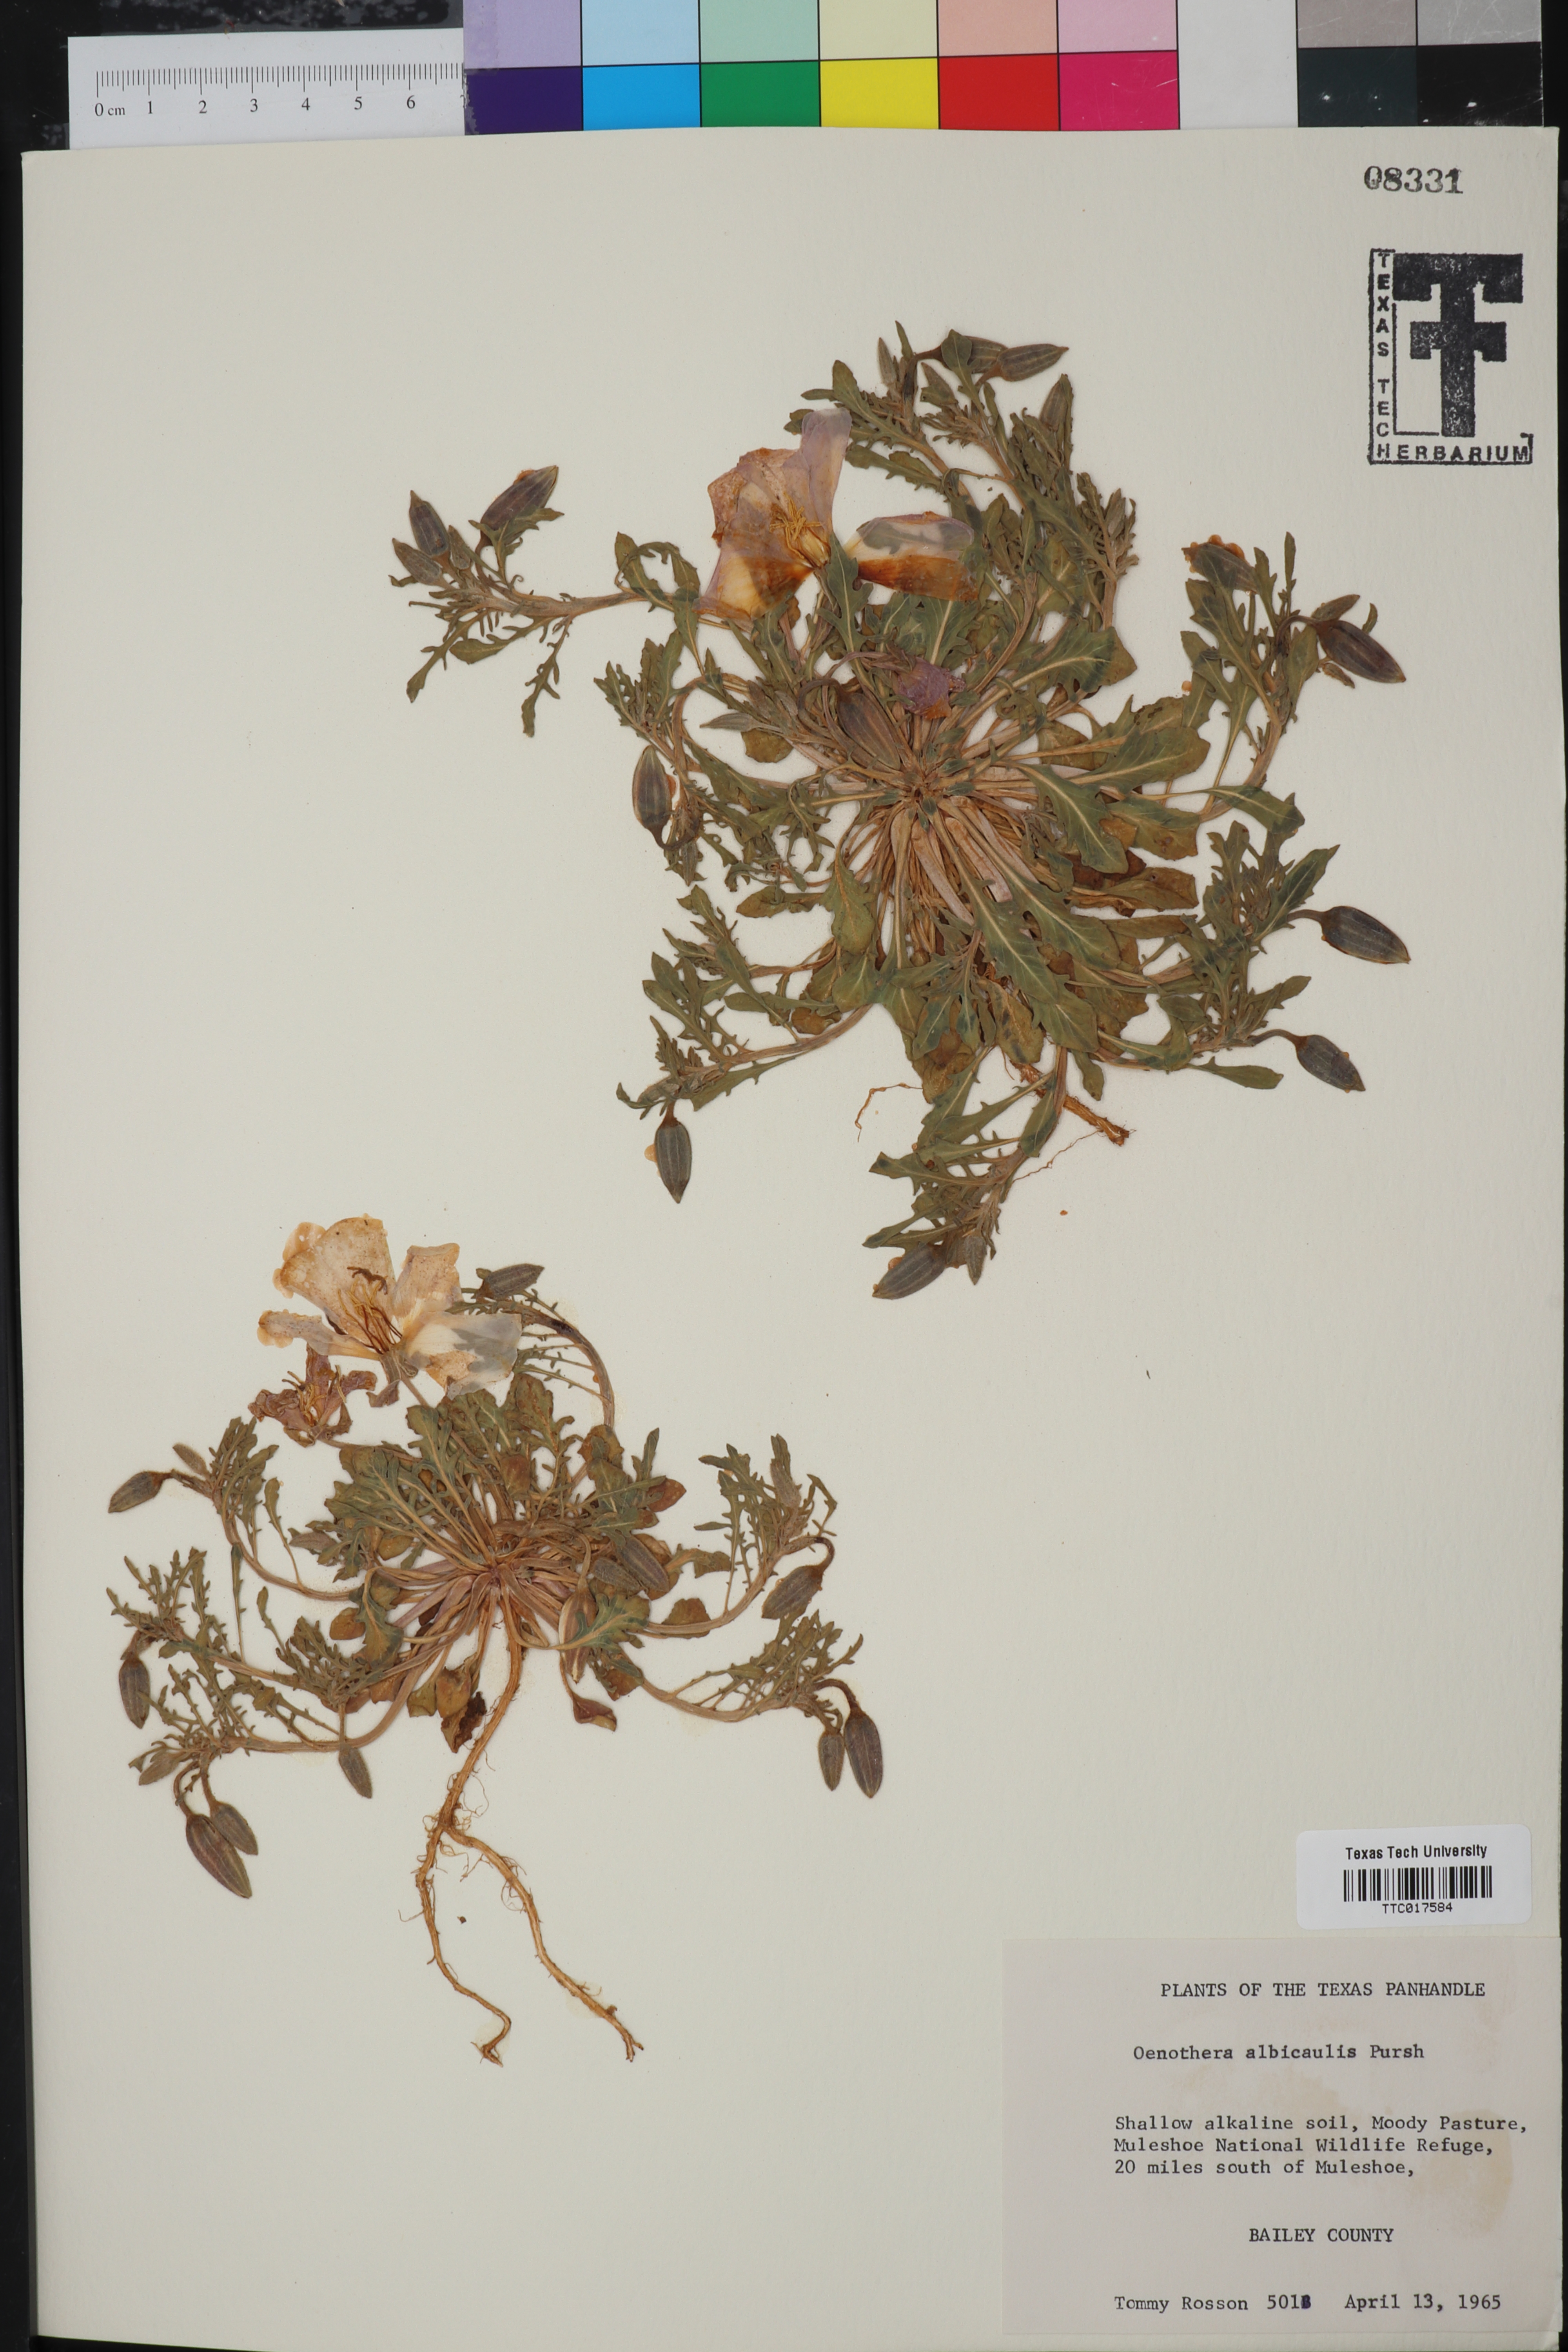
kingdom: Plantae
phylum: Tracheophyta
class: Magnoliopsida
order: Myrtales
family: Onagraceae
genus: Oenothera
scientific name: Oenothera albicaulis
